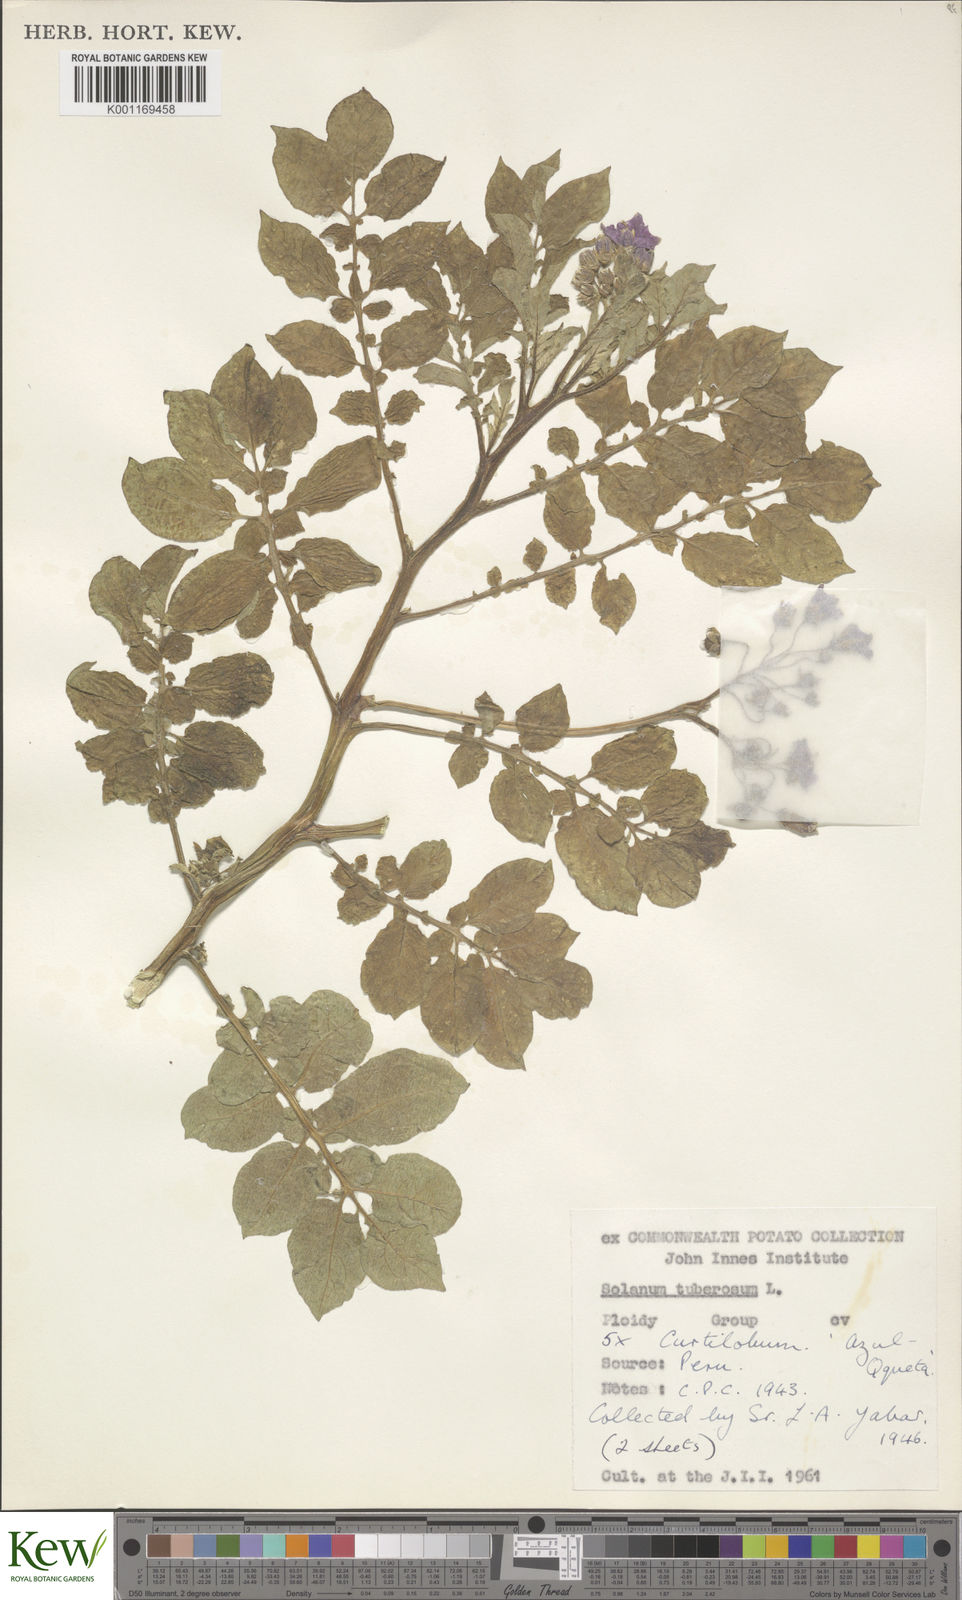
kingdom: Plantae
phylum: Tracheophyta
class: Magnoliopsida
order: Solanales
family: Solanaceae
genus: Solanum
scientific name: Solanum curtilobum
